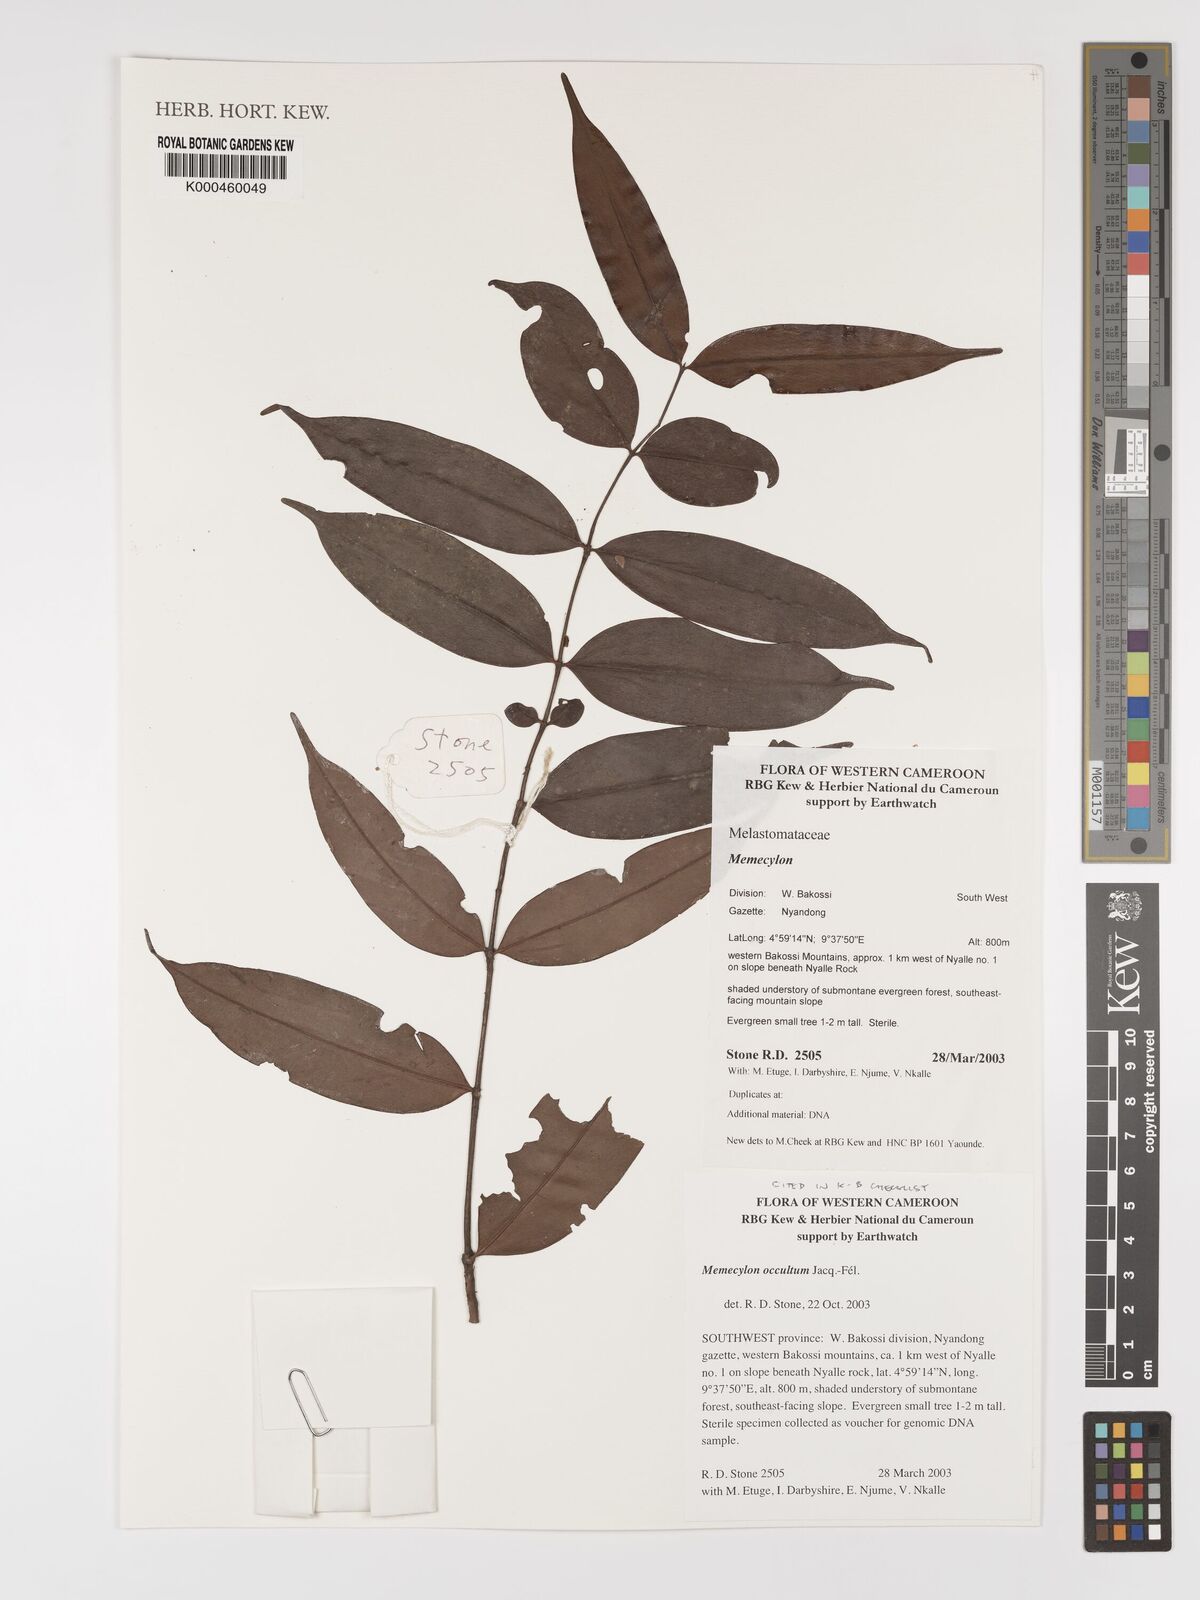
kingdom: Plantae
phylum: Tracheophyta
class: Magnoliopsida
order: Myrtales
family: Melastomataceae
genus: Memecylon
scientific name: Memecylon
